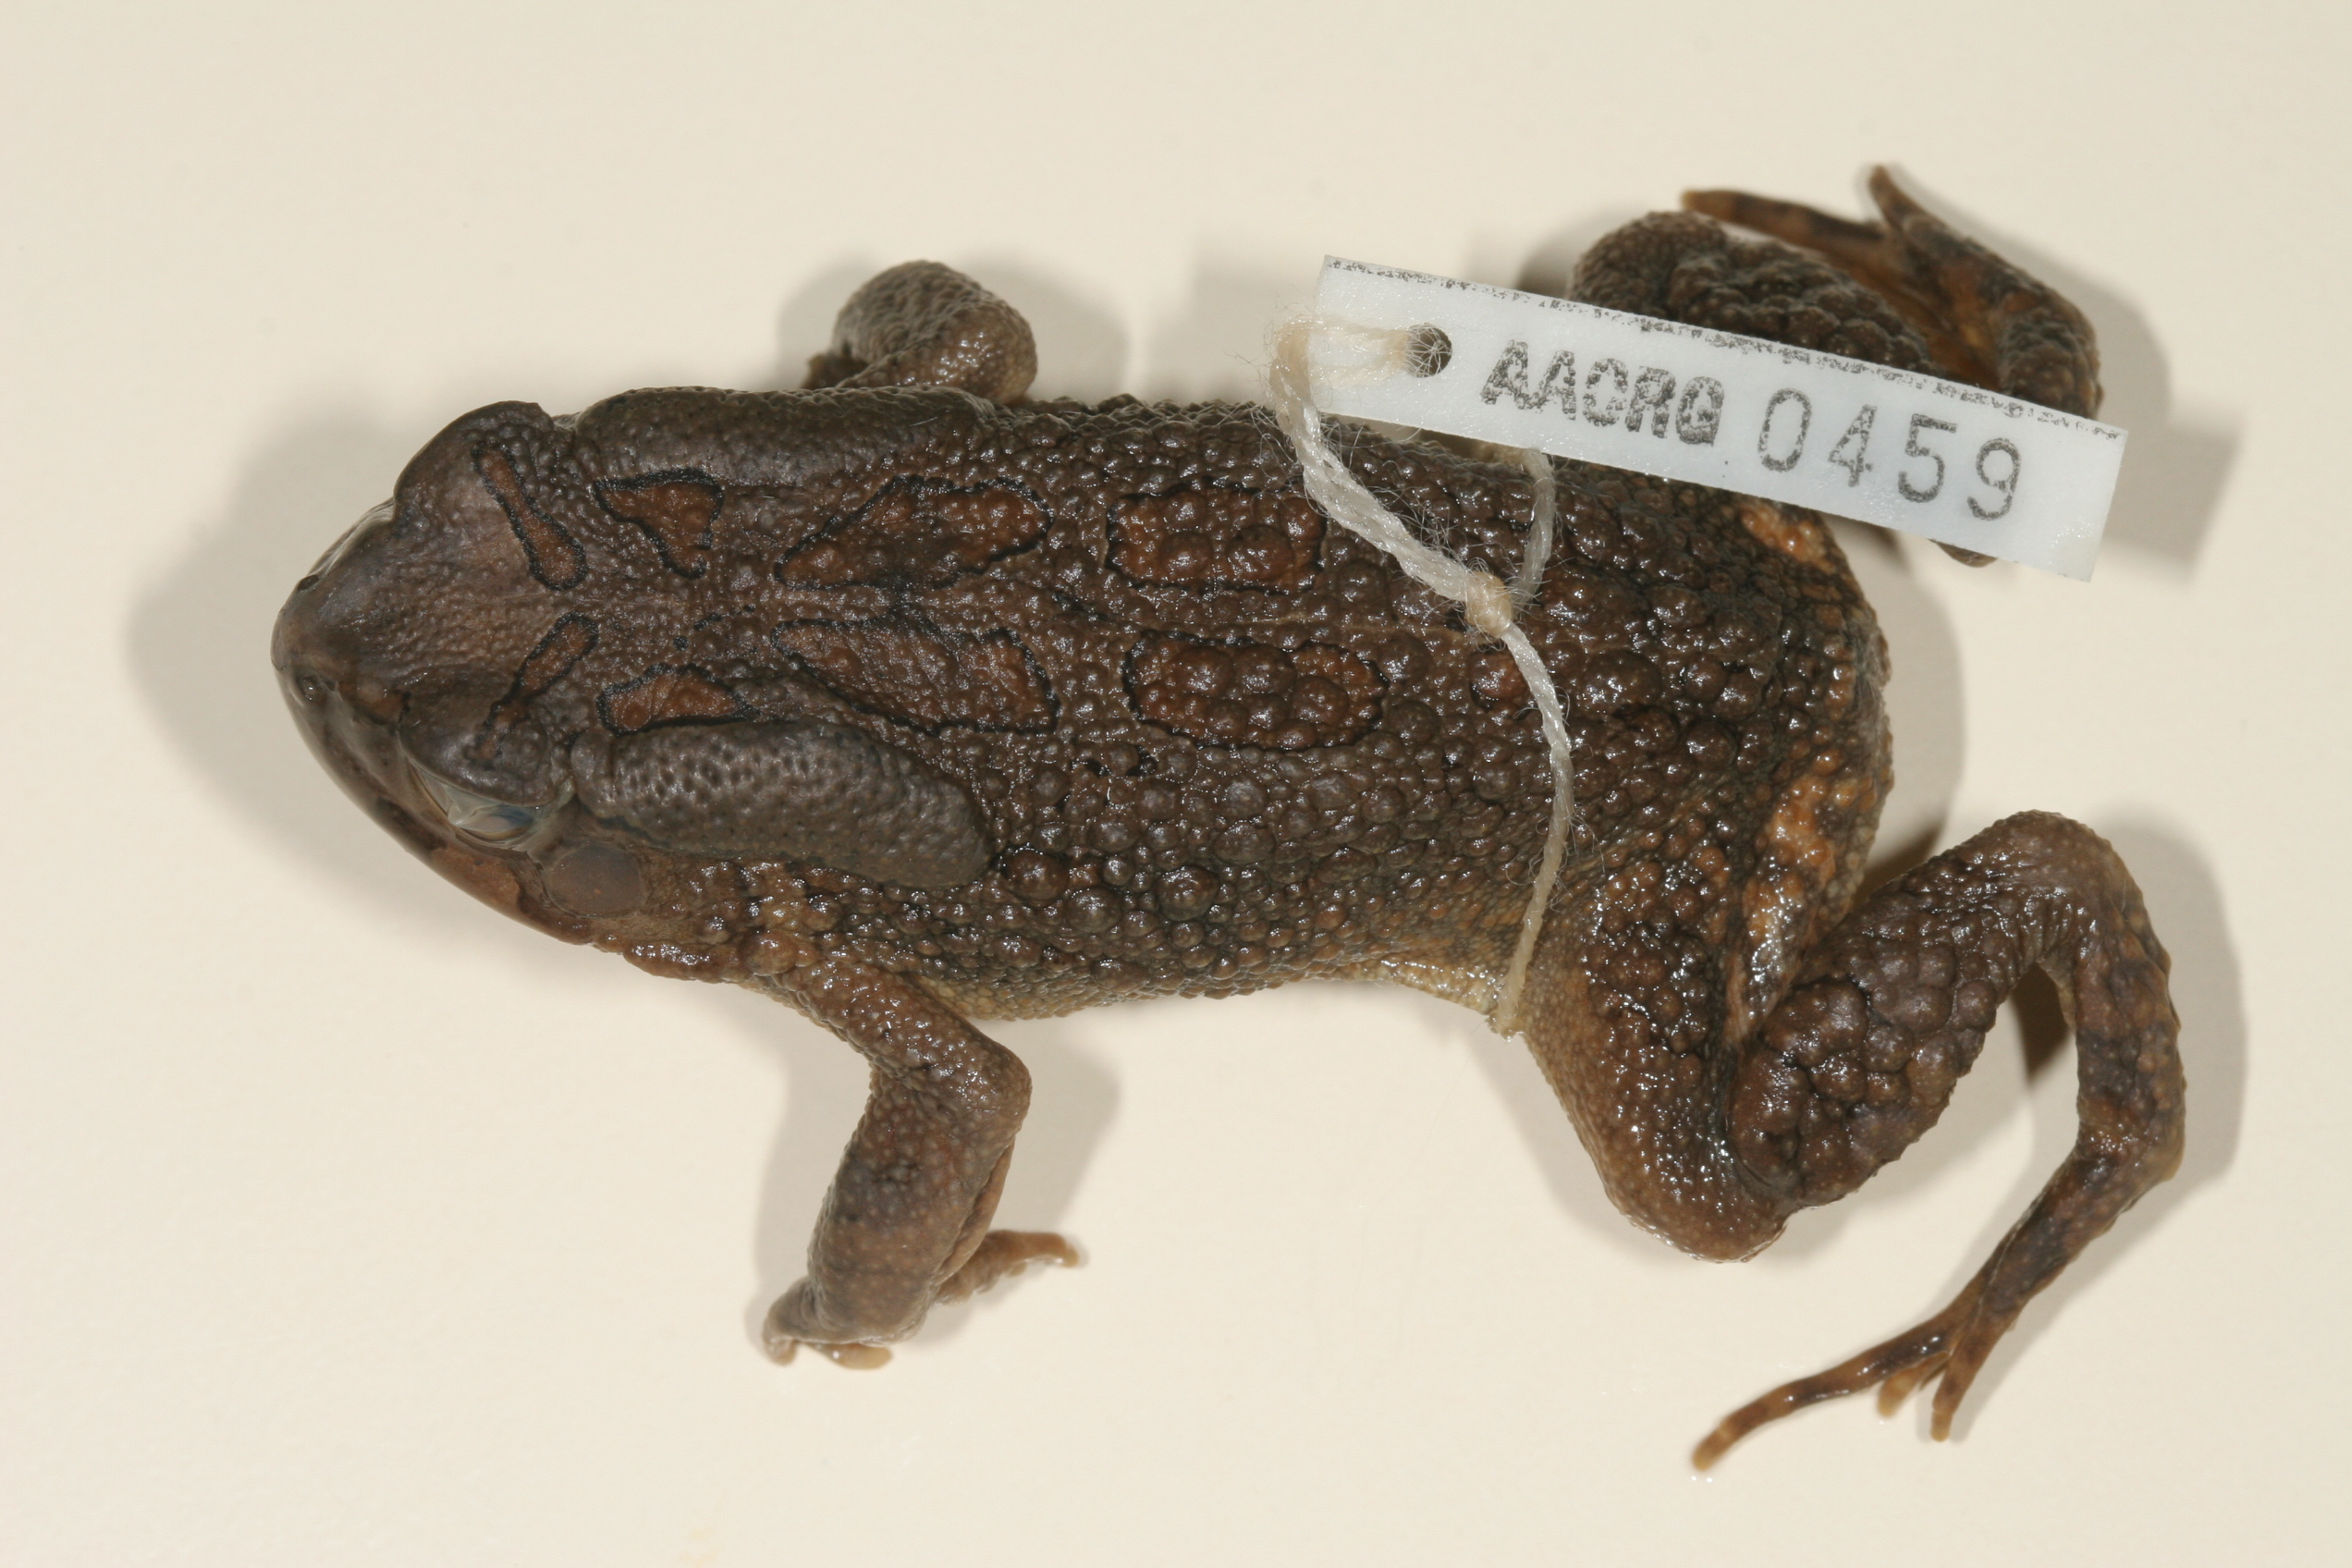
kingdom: Animalia
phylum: Chordata
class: Amphibia
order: Anura
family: Bufonidae
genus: Sclerophrys
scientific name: Sclerophrys garmani
